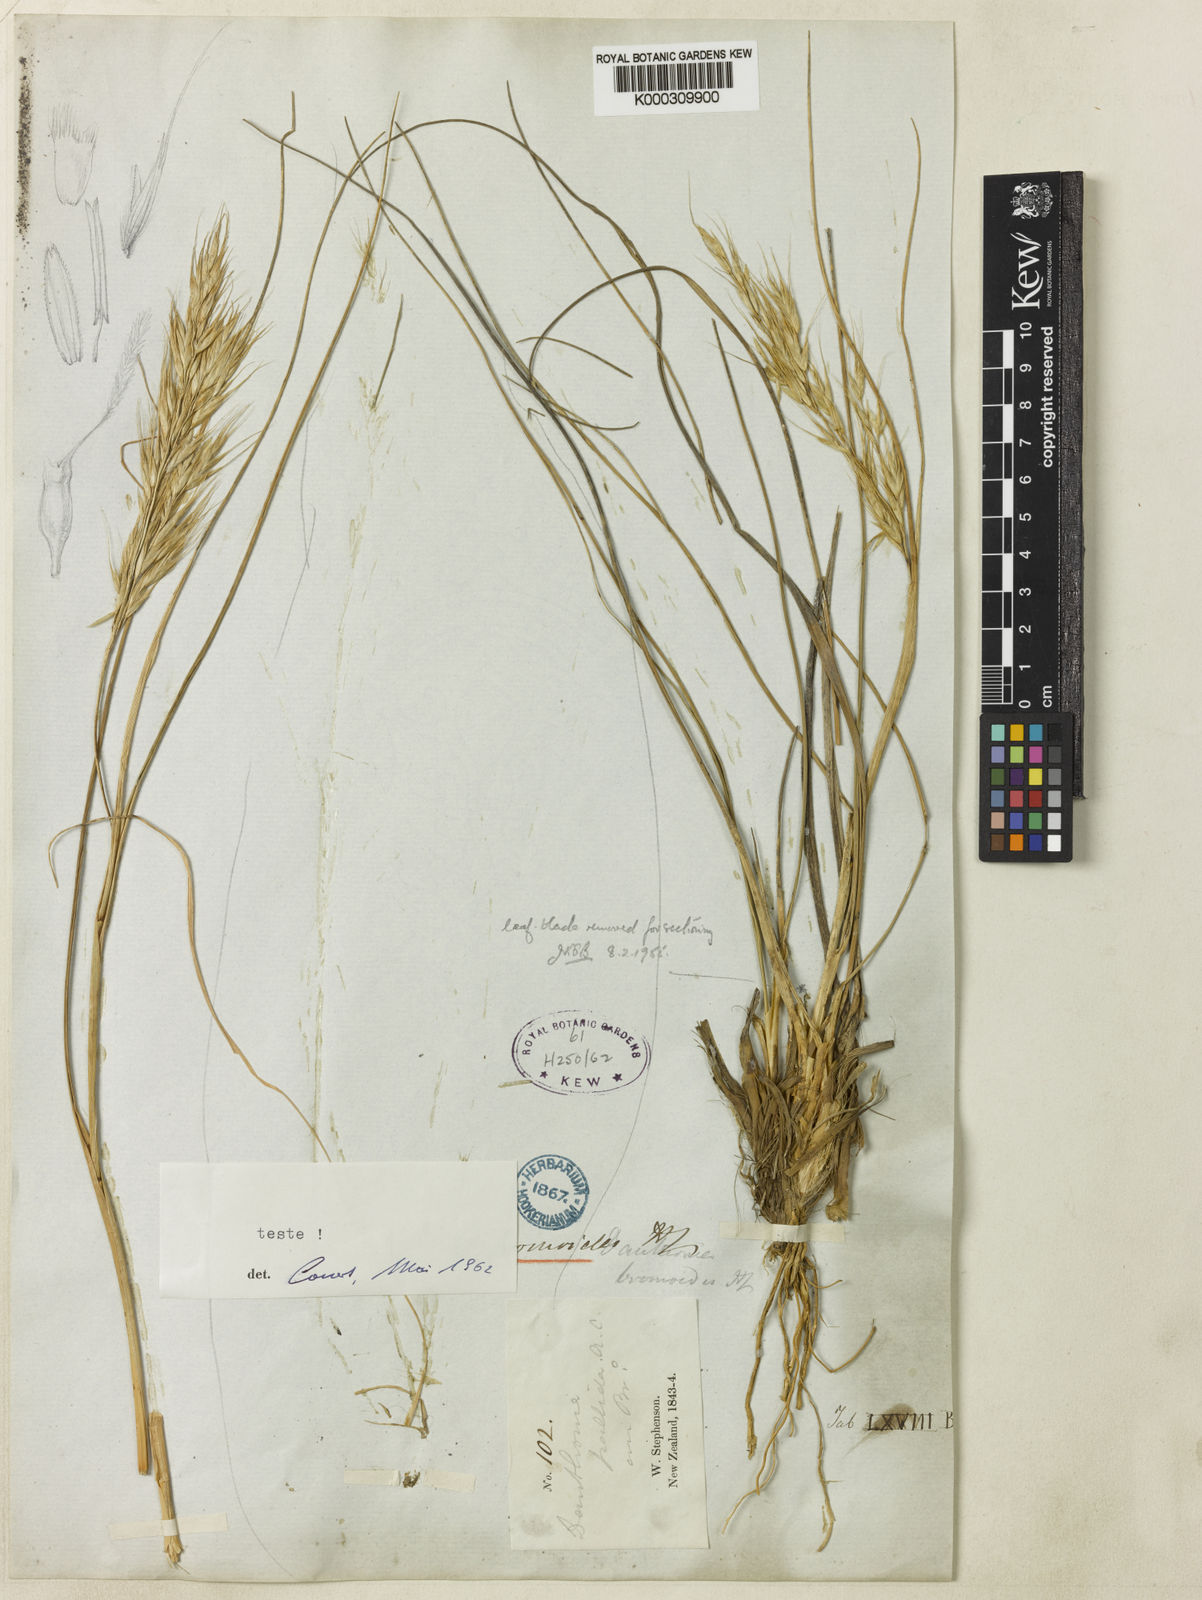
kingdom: Plantae
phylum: Tracheophyta
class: Liliopsida
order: Poales
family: Poaceae
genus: Chionochloa
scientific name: Chionochloa bromoides
